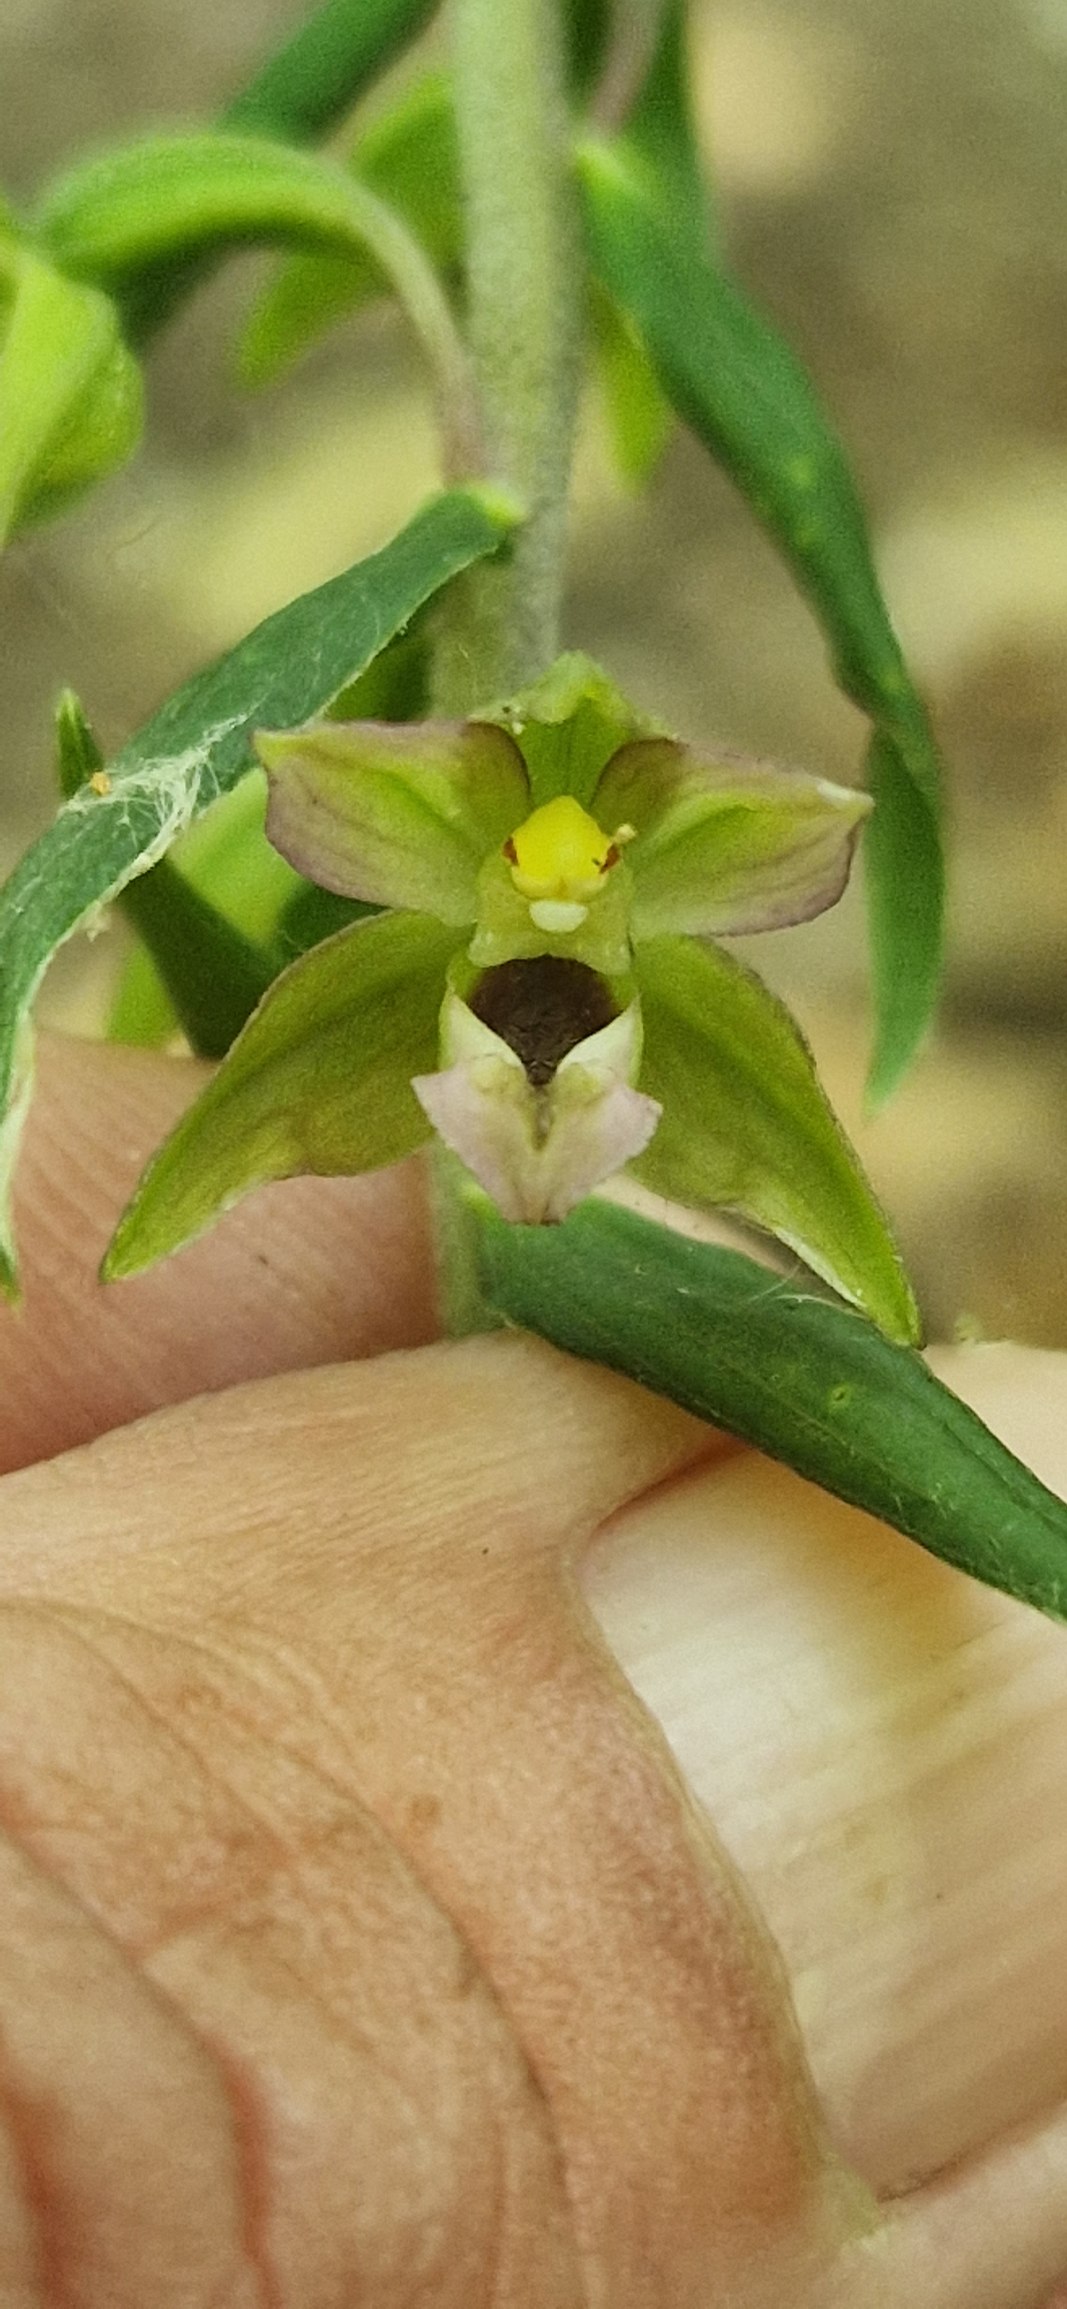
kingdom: Plantae
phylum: Tracheophyta
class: Liliopsida
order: Asparagales
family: Orchidaceae
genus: Epipactis
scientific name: Epipactis helleborine
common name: Skov-hullæbe
